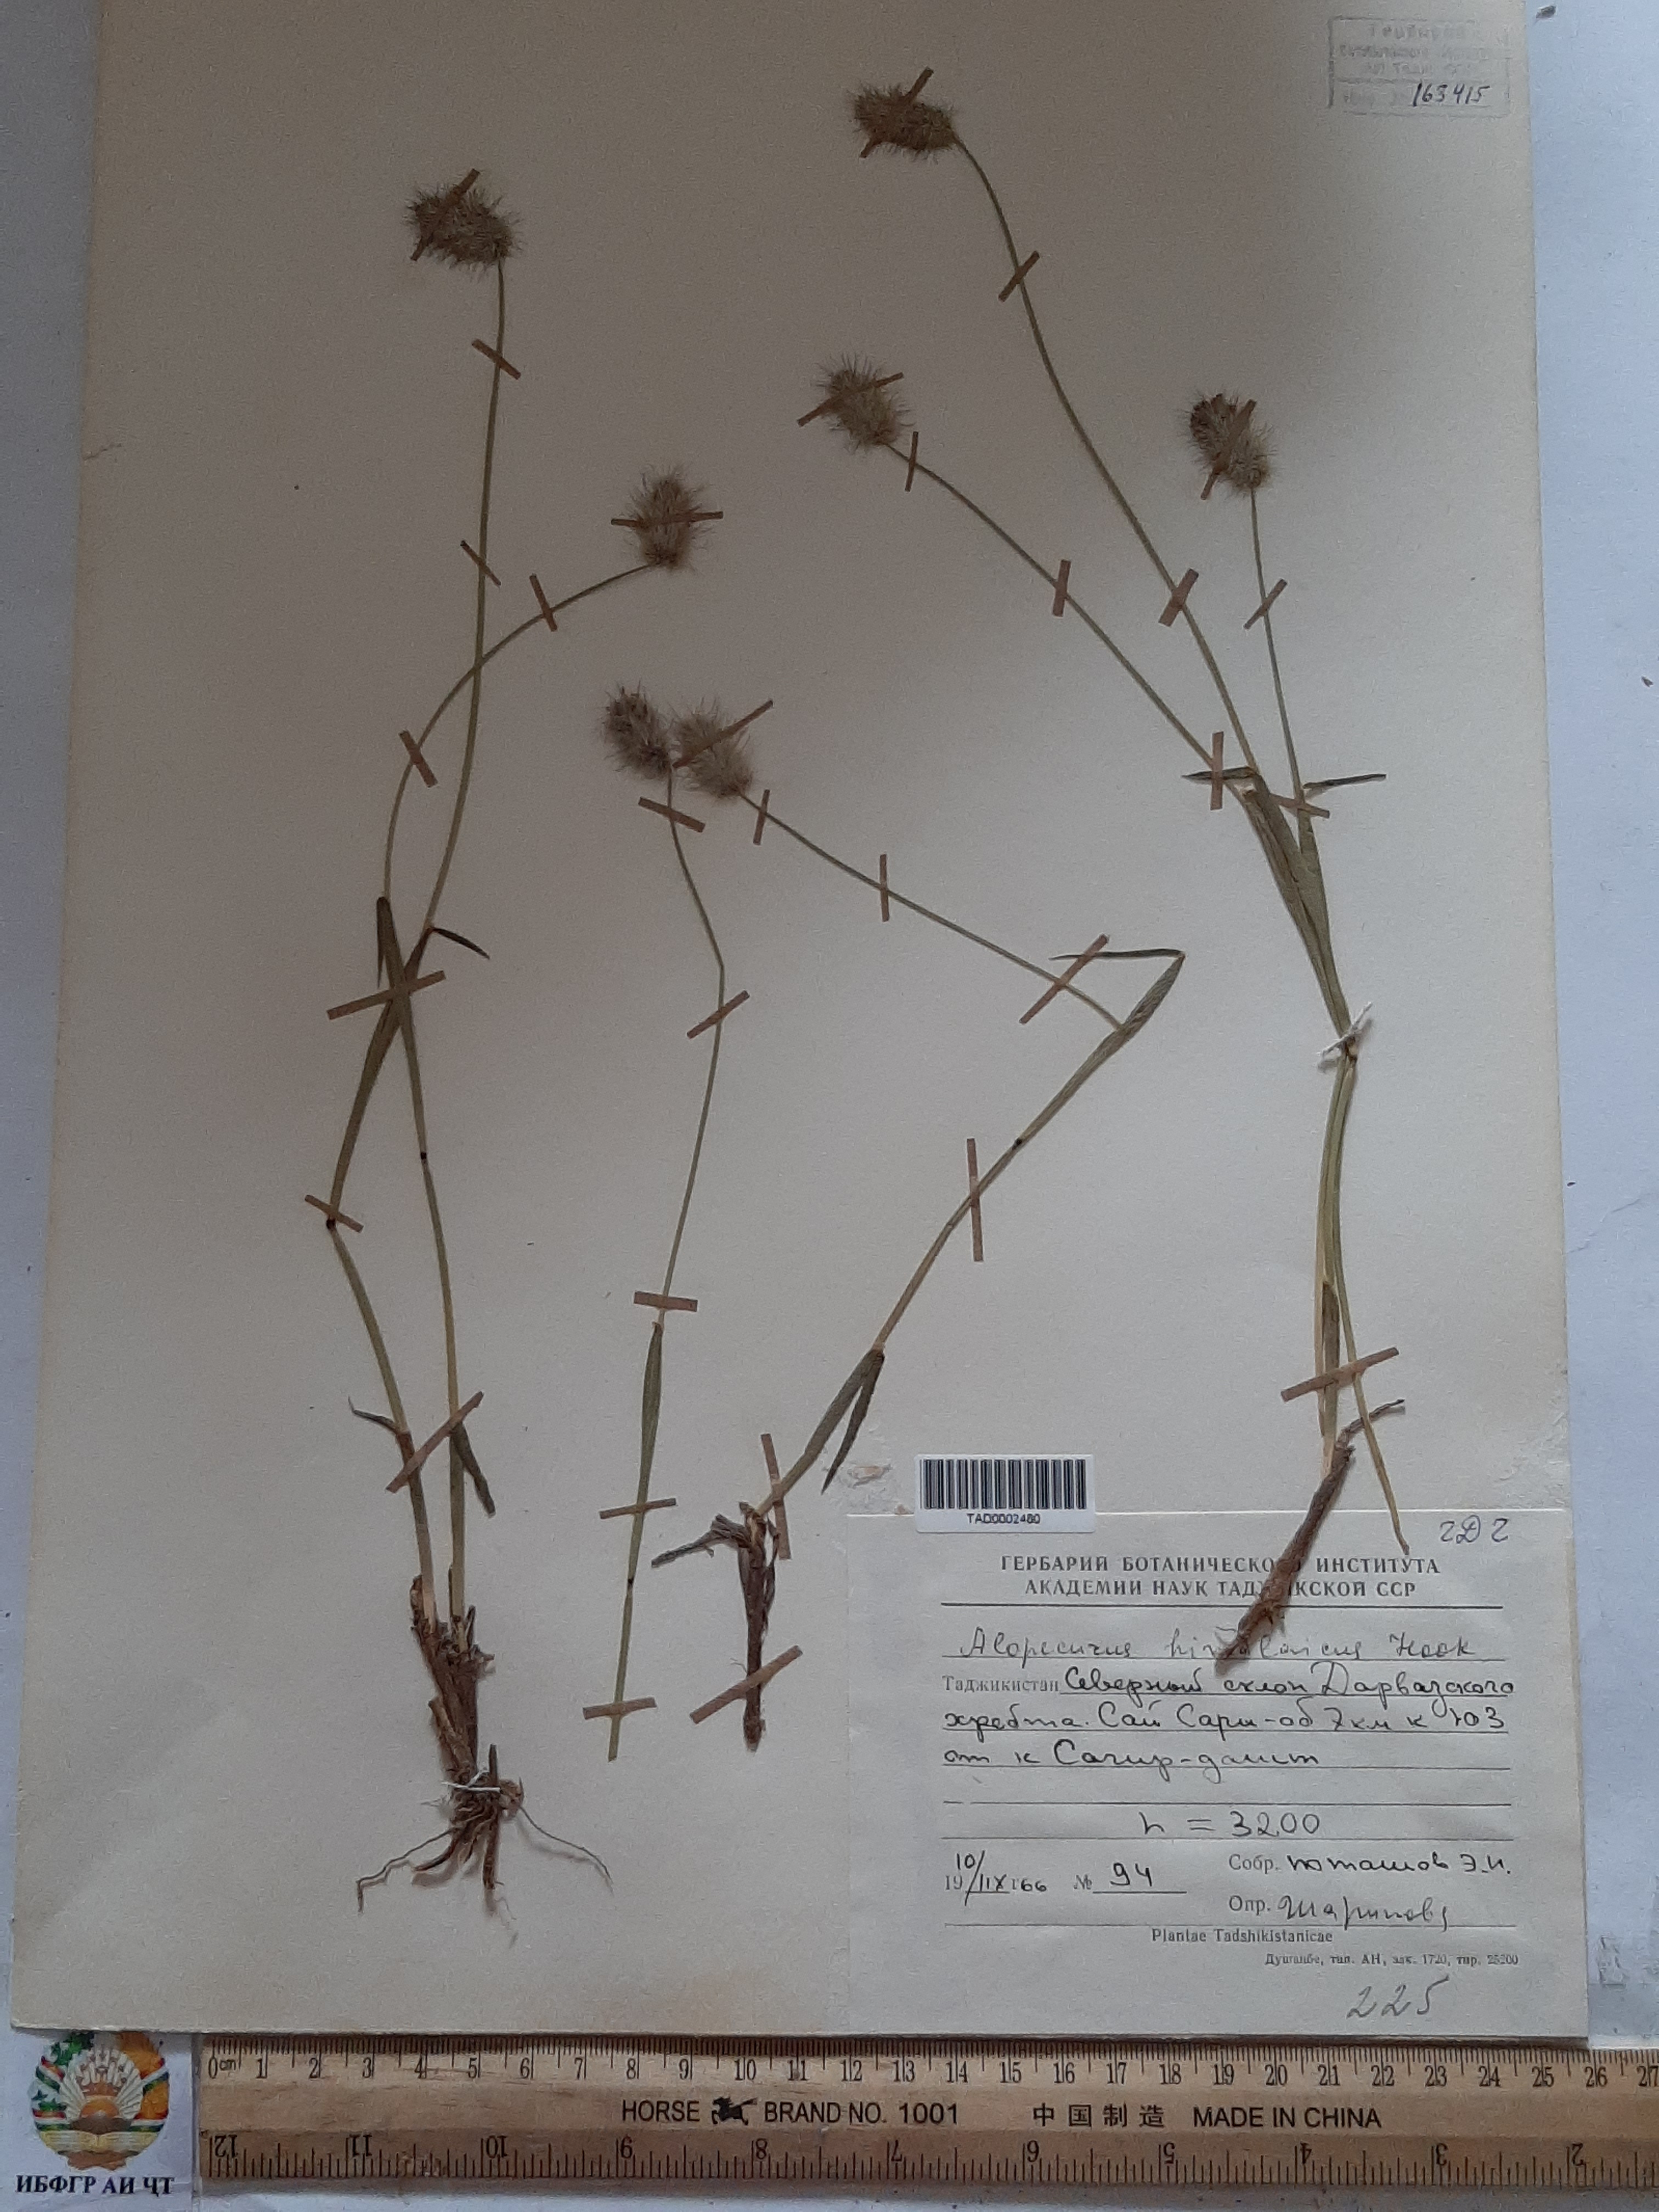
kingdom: Plantae
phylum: Tracheophyta
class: Liliopsida
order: Poales
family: Poaceae
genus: Alopecurus
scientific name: Alopecurus himalaicus
